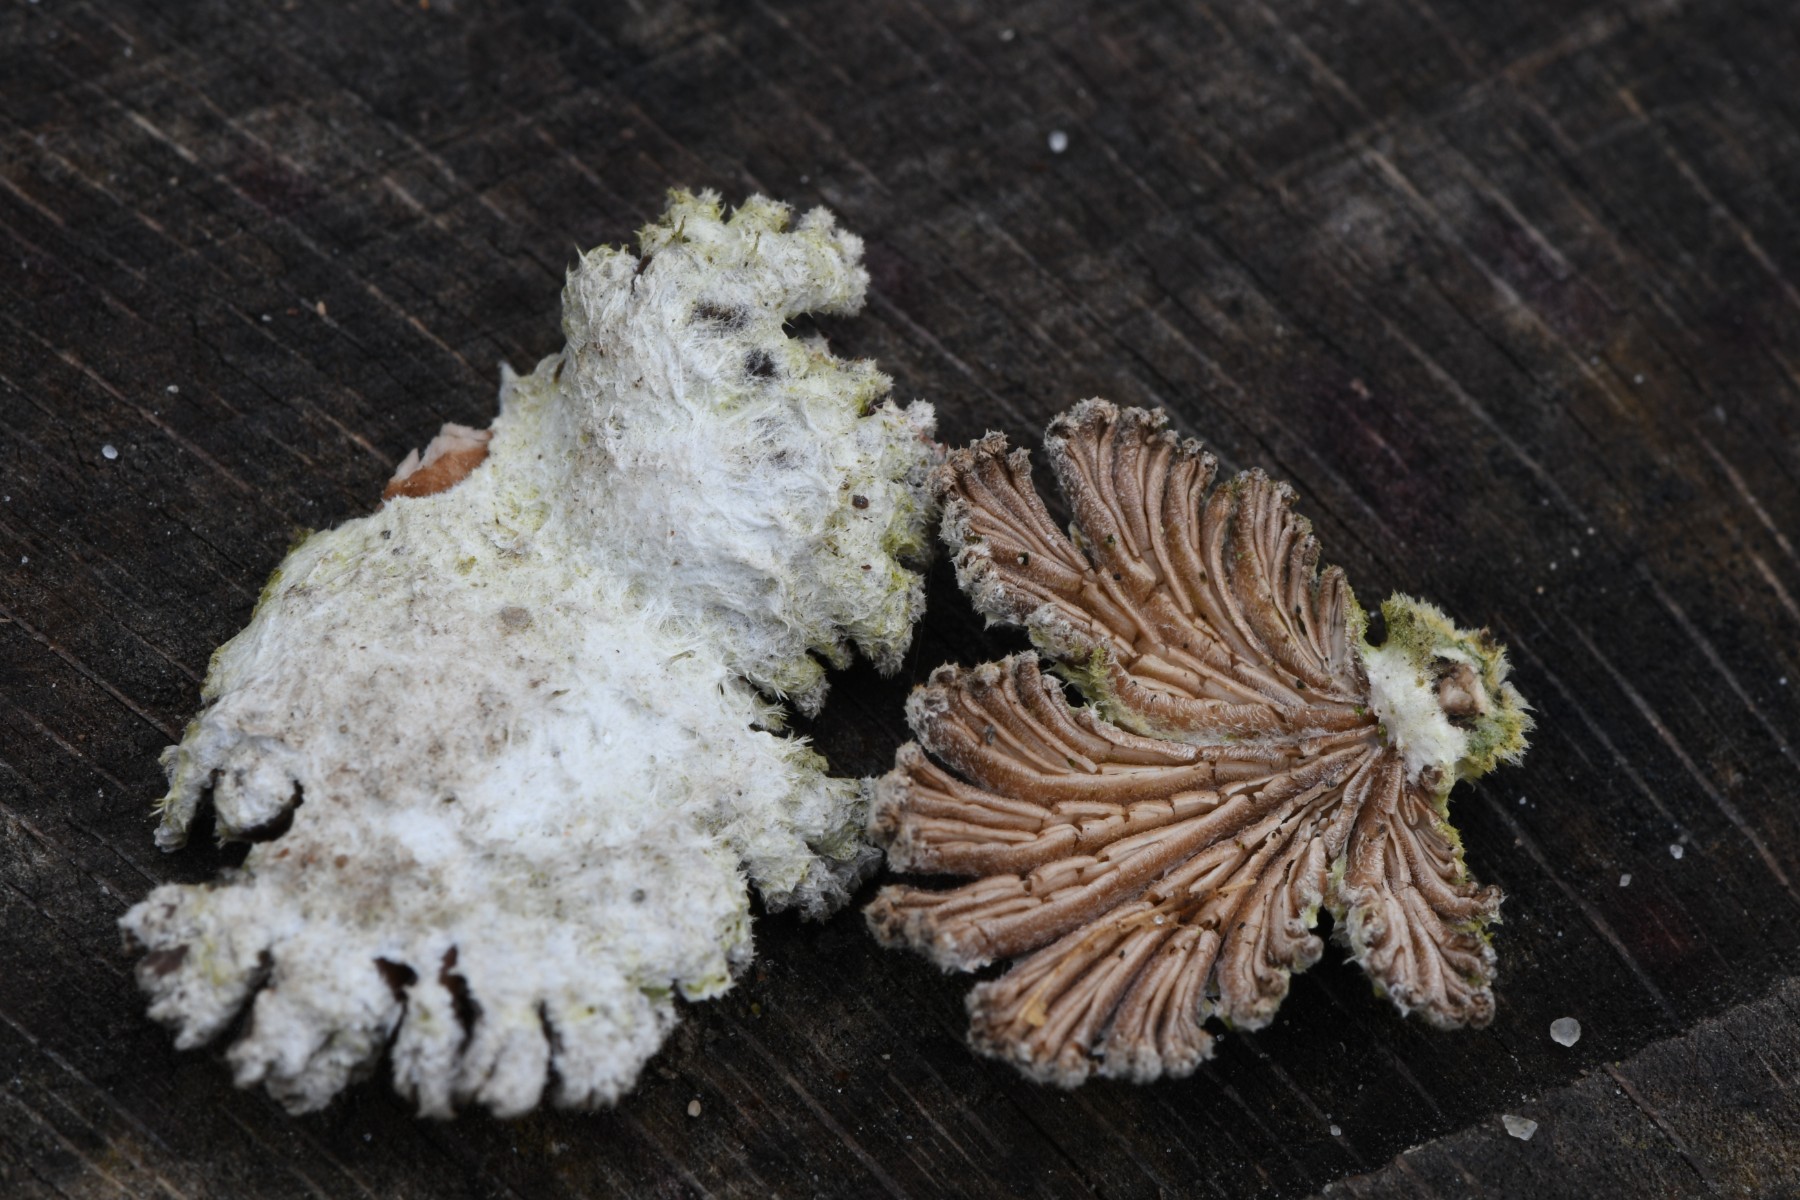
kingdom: Fungi
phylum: Basidiomycota
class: Agaricomycetes
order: Agaricales
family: Schizophyllaceae
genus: Schizophyllum
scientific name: Schizophyllum commune
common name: kløvblad
